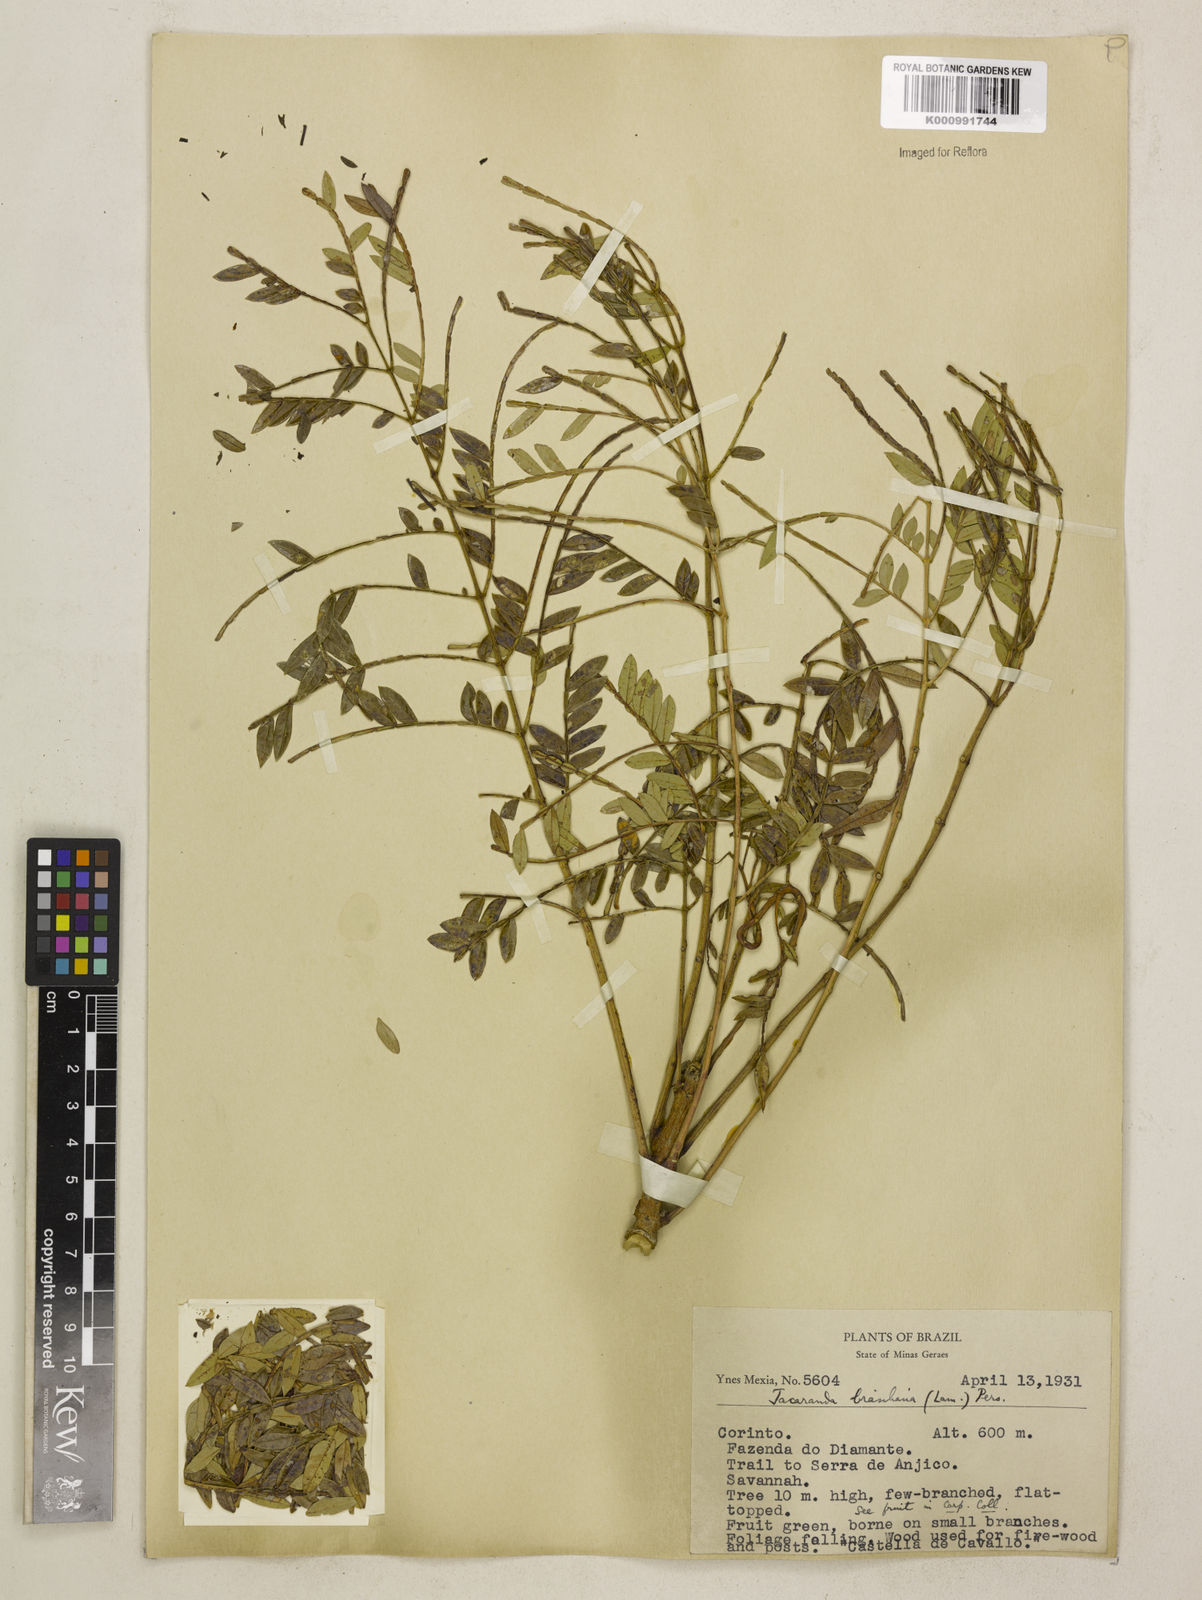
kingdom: Plantae
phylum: Tracheophyta
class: Magnoliopsida
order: Lamiales
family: Bignoniaceae
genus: Jacaranda
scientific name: Jacaranda brasiliana
